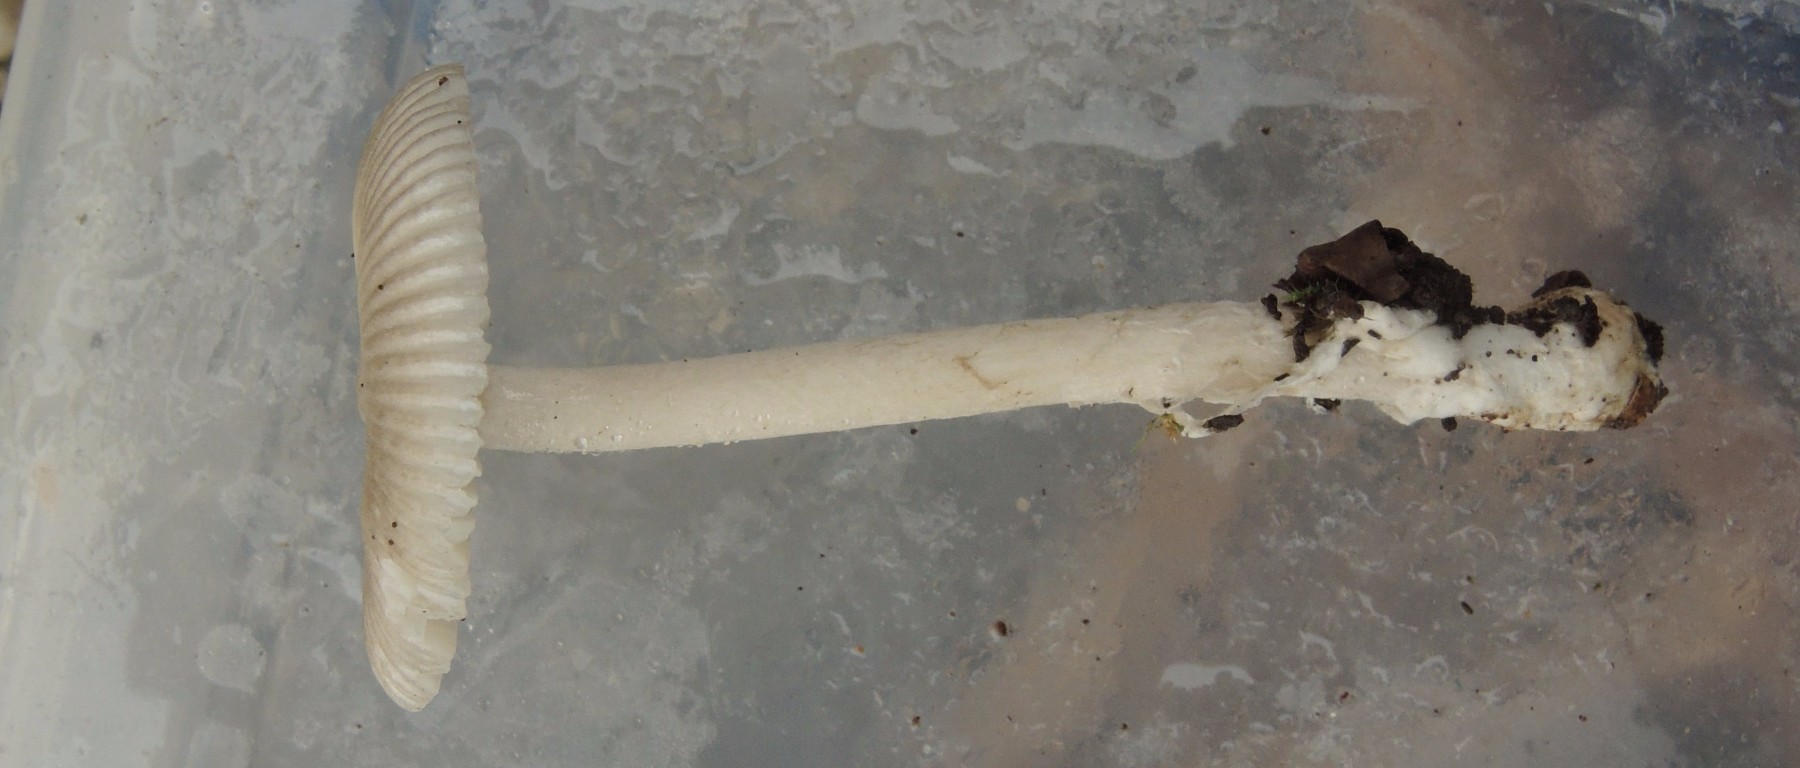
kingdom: Fungi
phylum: Basidiomycota
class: Agaricomycetes
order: Agaricales
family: Amanitaceae
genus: Amanita
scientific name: Amanita coryli
